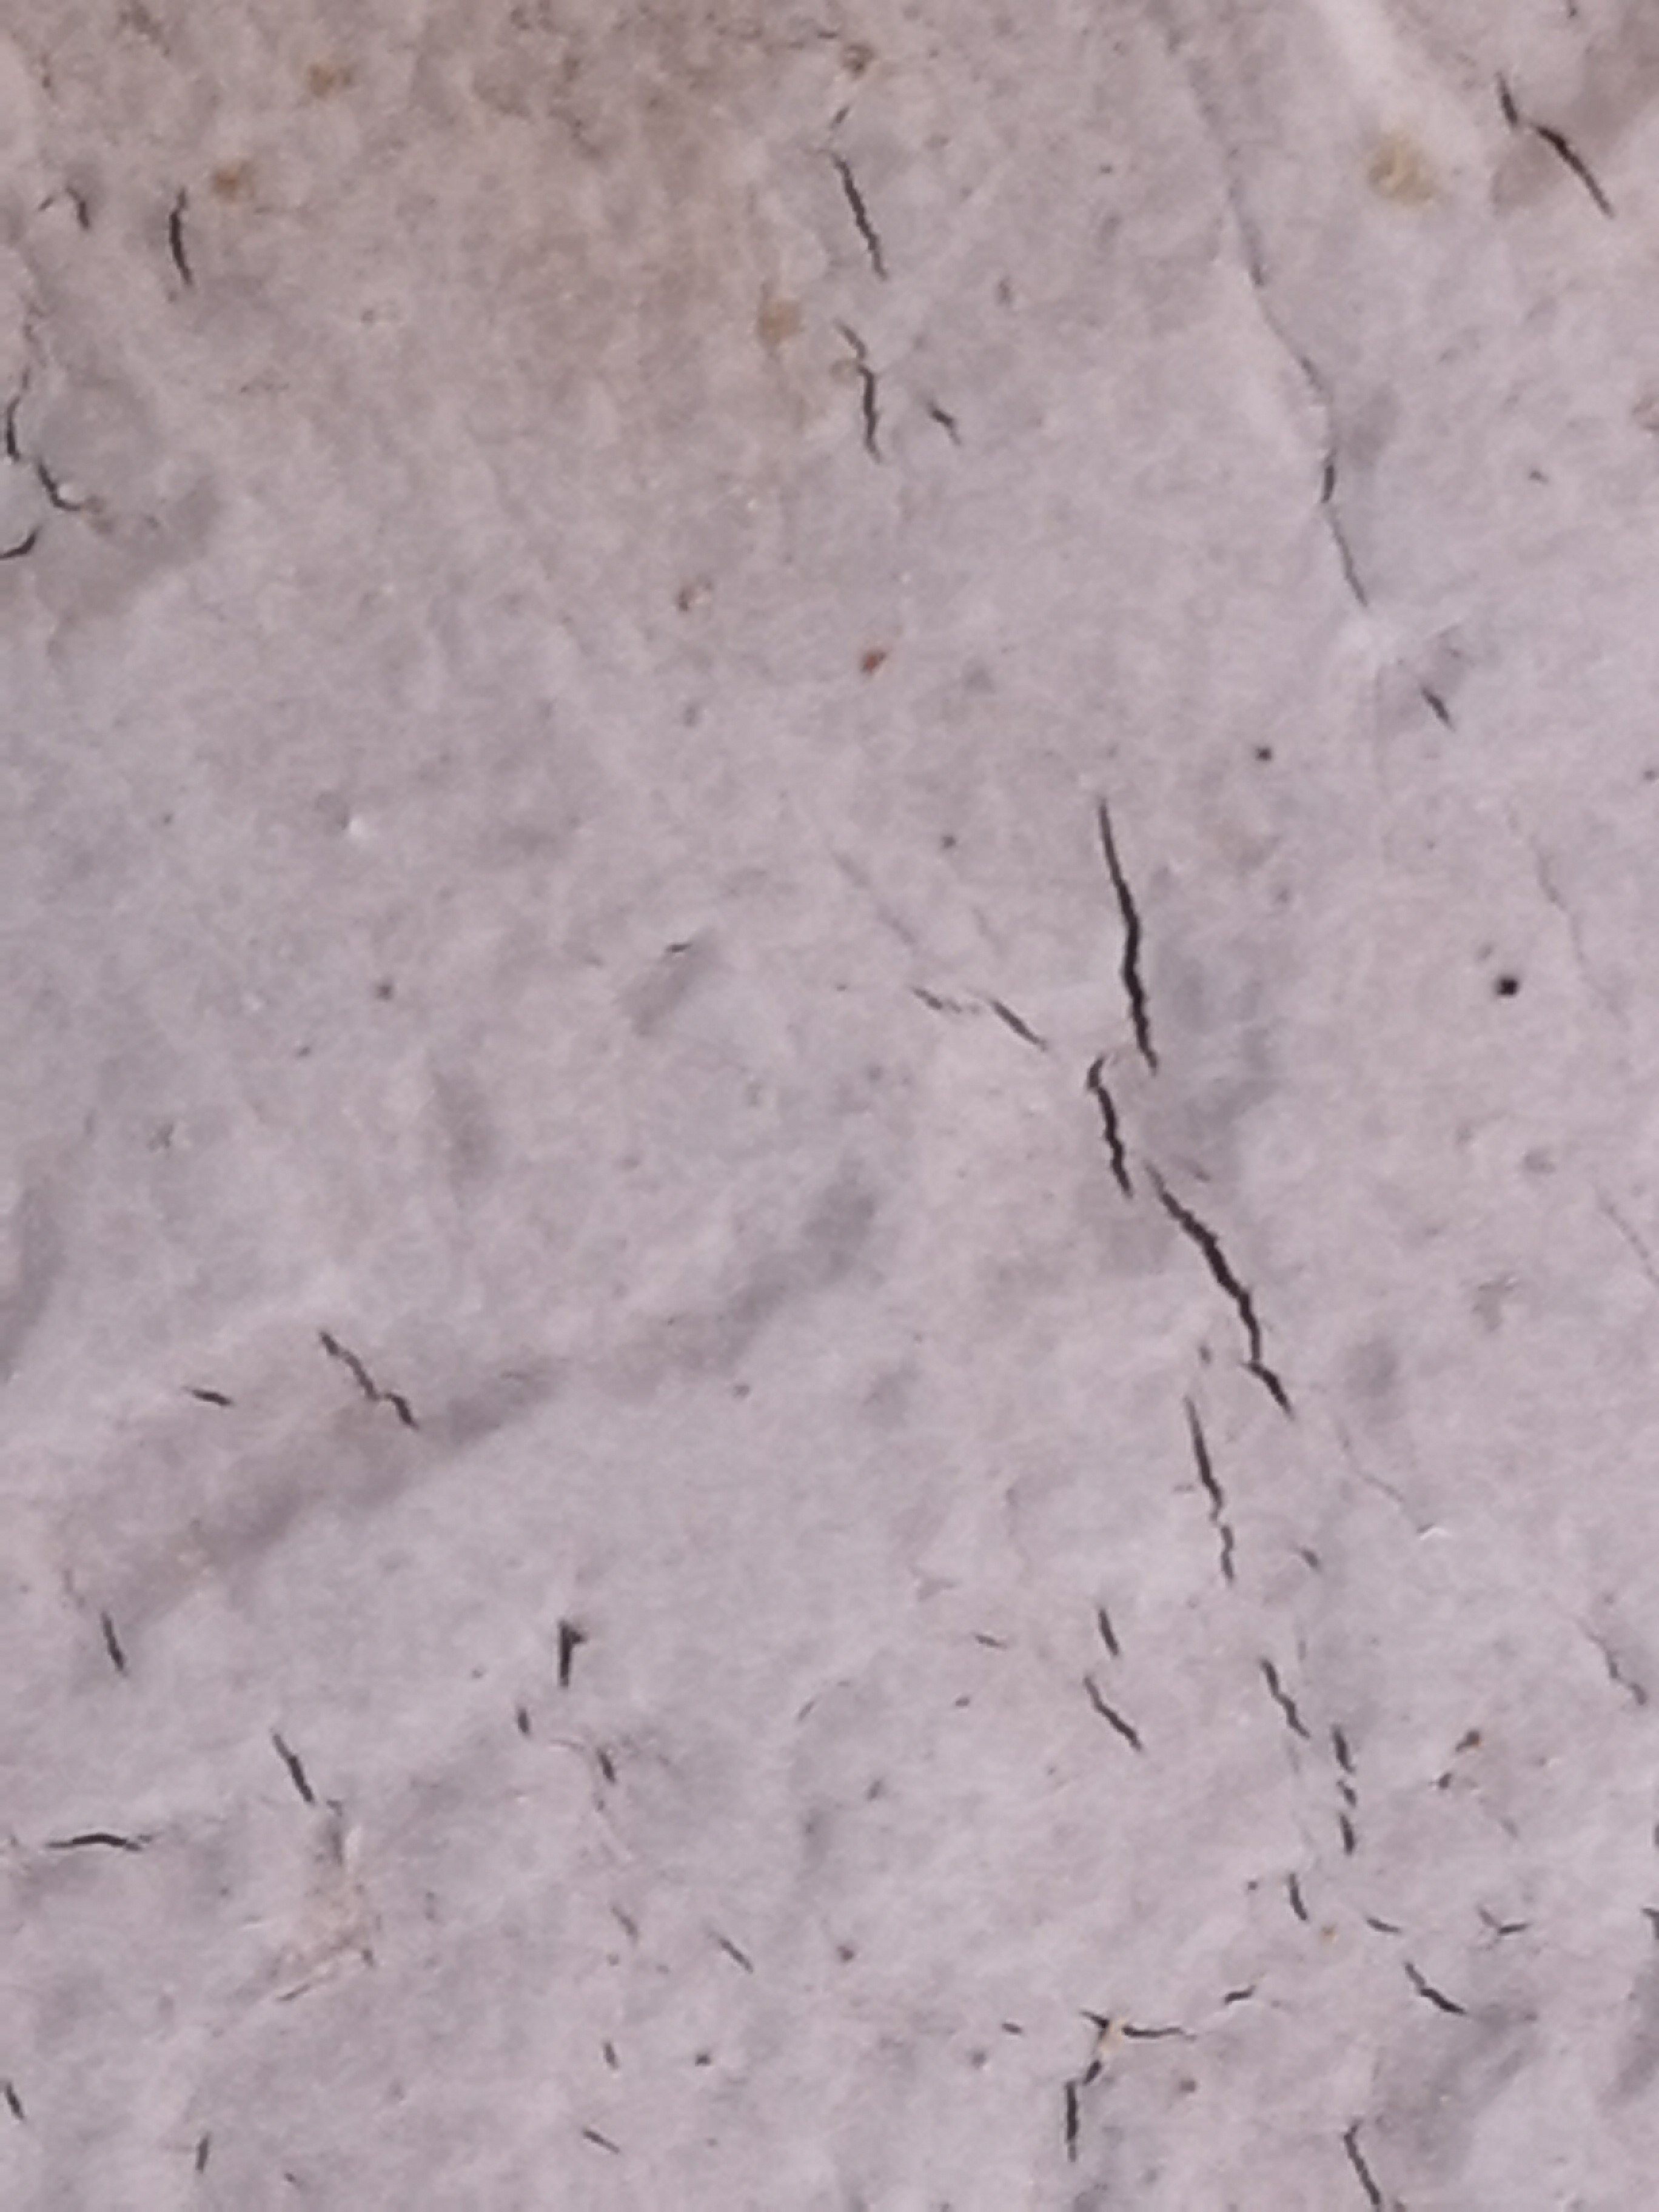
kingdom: Fungi
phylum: Basidiomycota
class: Agaricomycetes
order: Corticiales
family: Corticiaceae
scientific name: Corticiaceae
